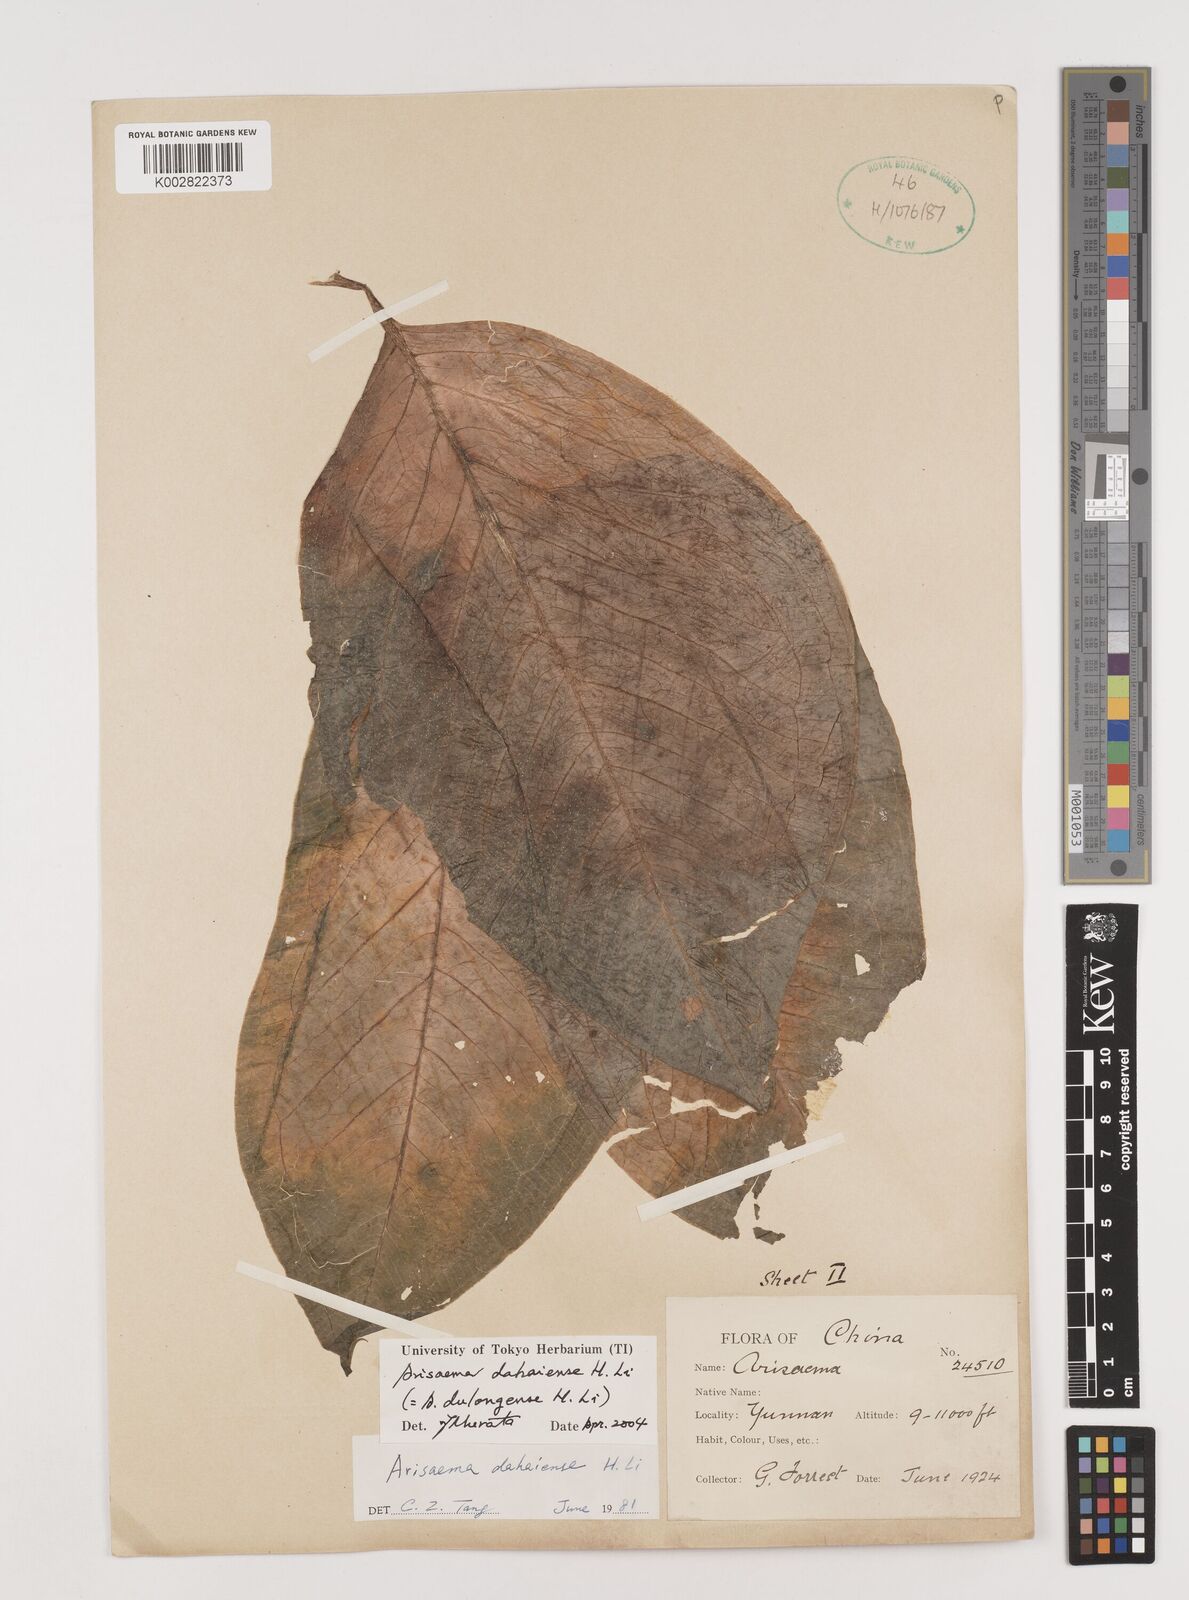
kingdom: Plantae
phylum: Tracheophyta
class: Liliopsida
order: Alismatales
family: Araceae
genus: Arisaema
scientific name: Arisaema dahaiense
